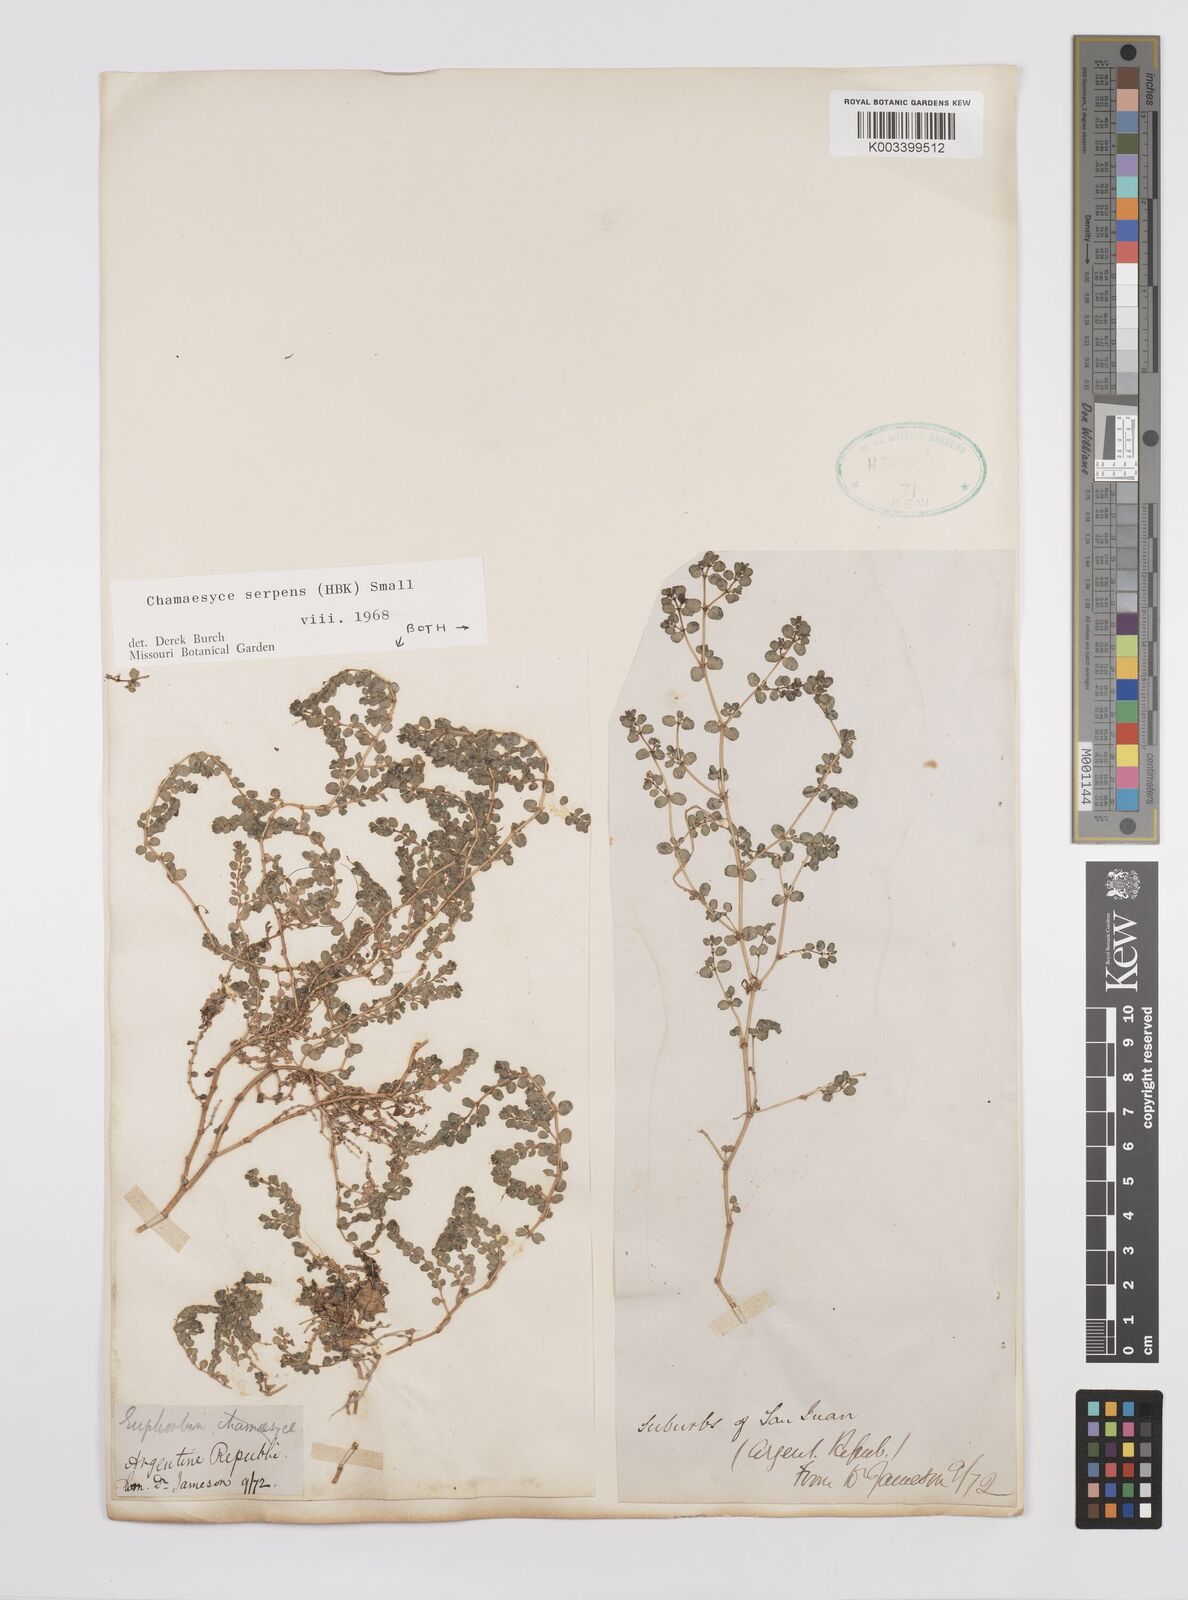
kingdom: Plantae
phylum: Tracheophyta
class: Magnoliopsida
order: Malpighiales
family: Euphorbiaceae
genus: Euphorbia
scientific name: Euphorbia
